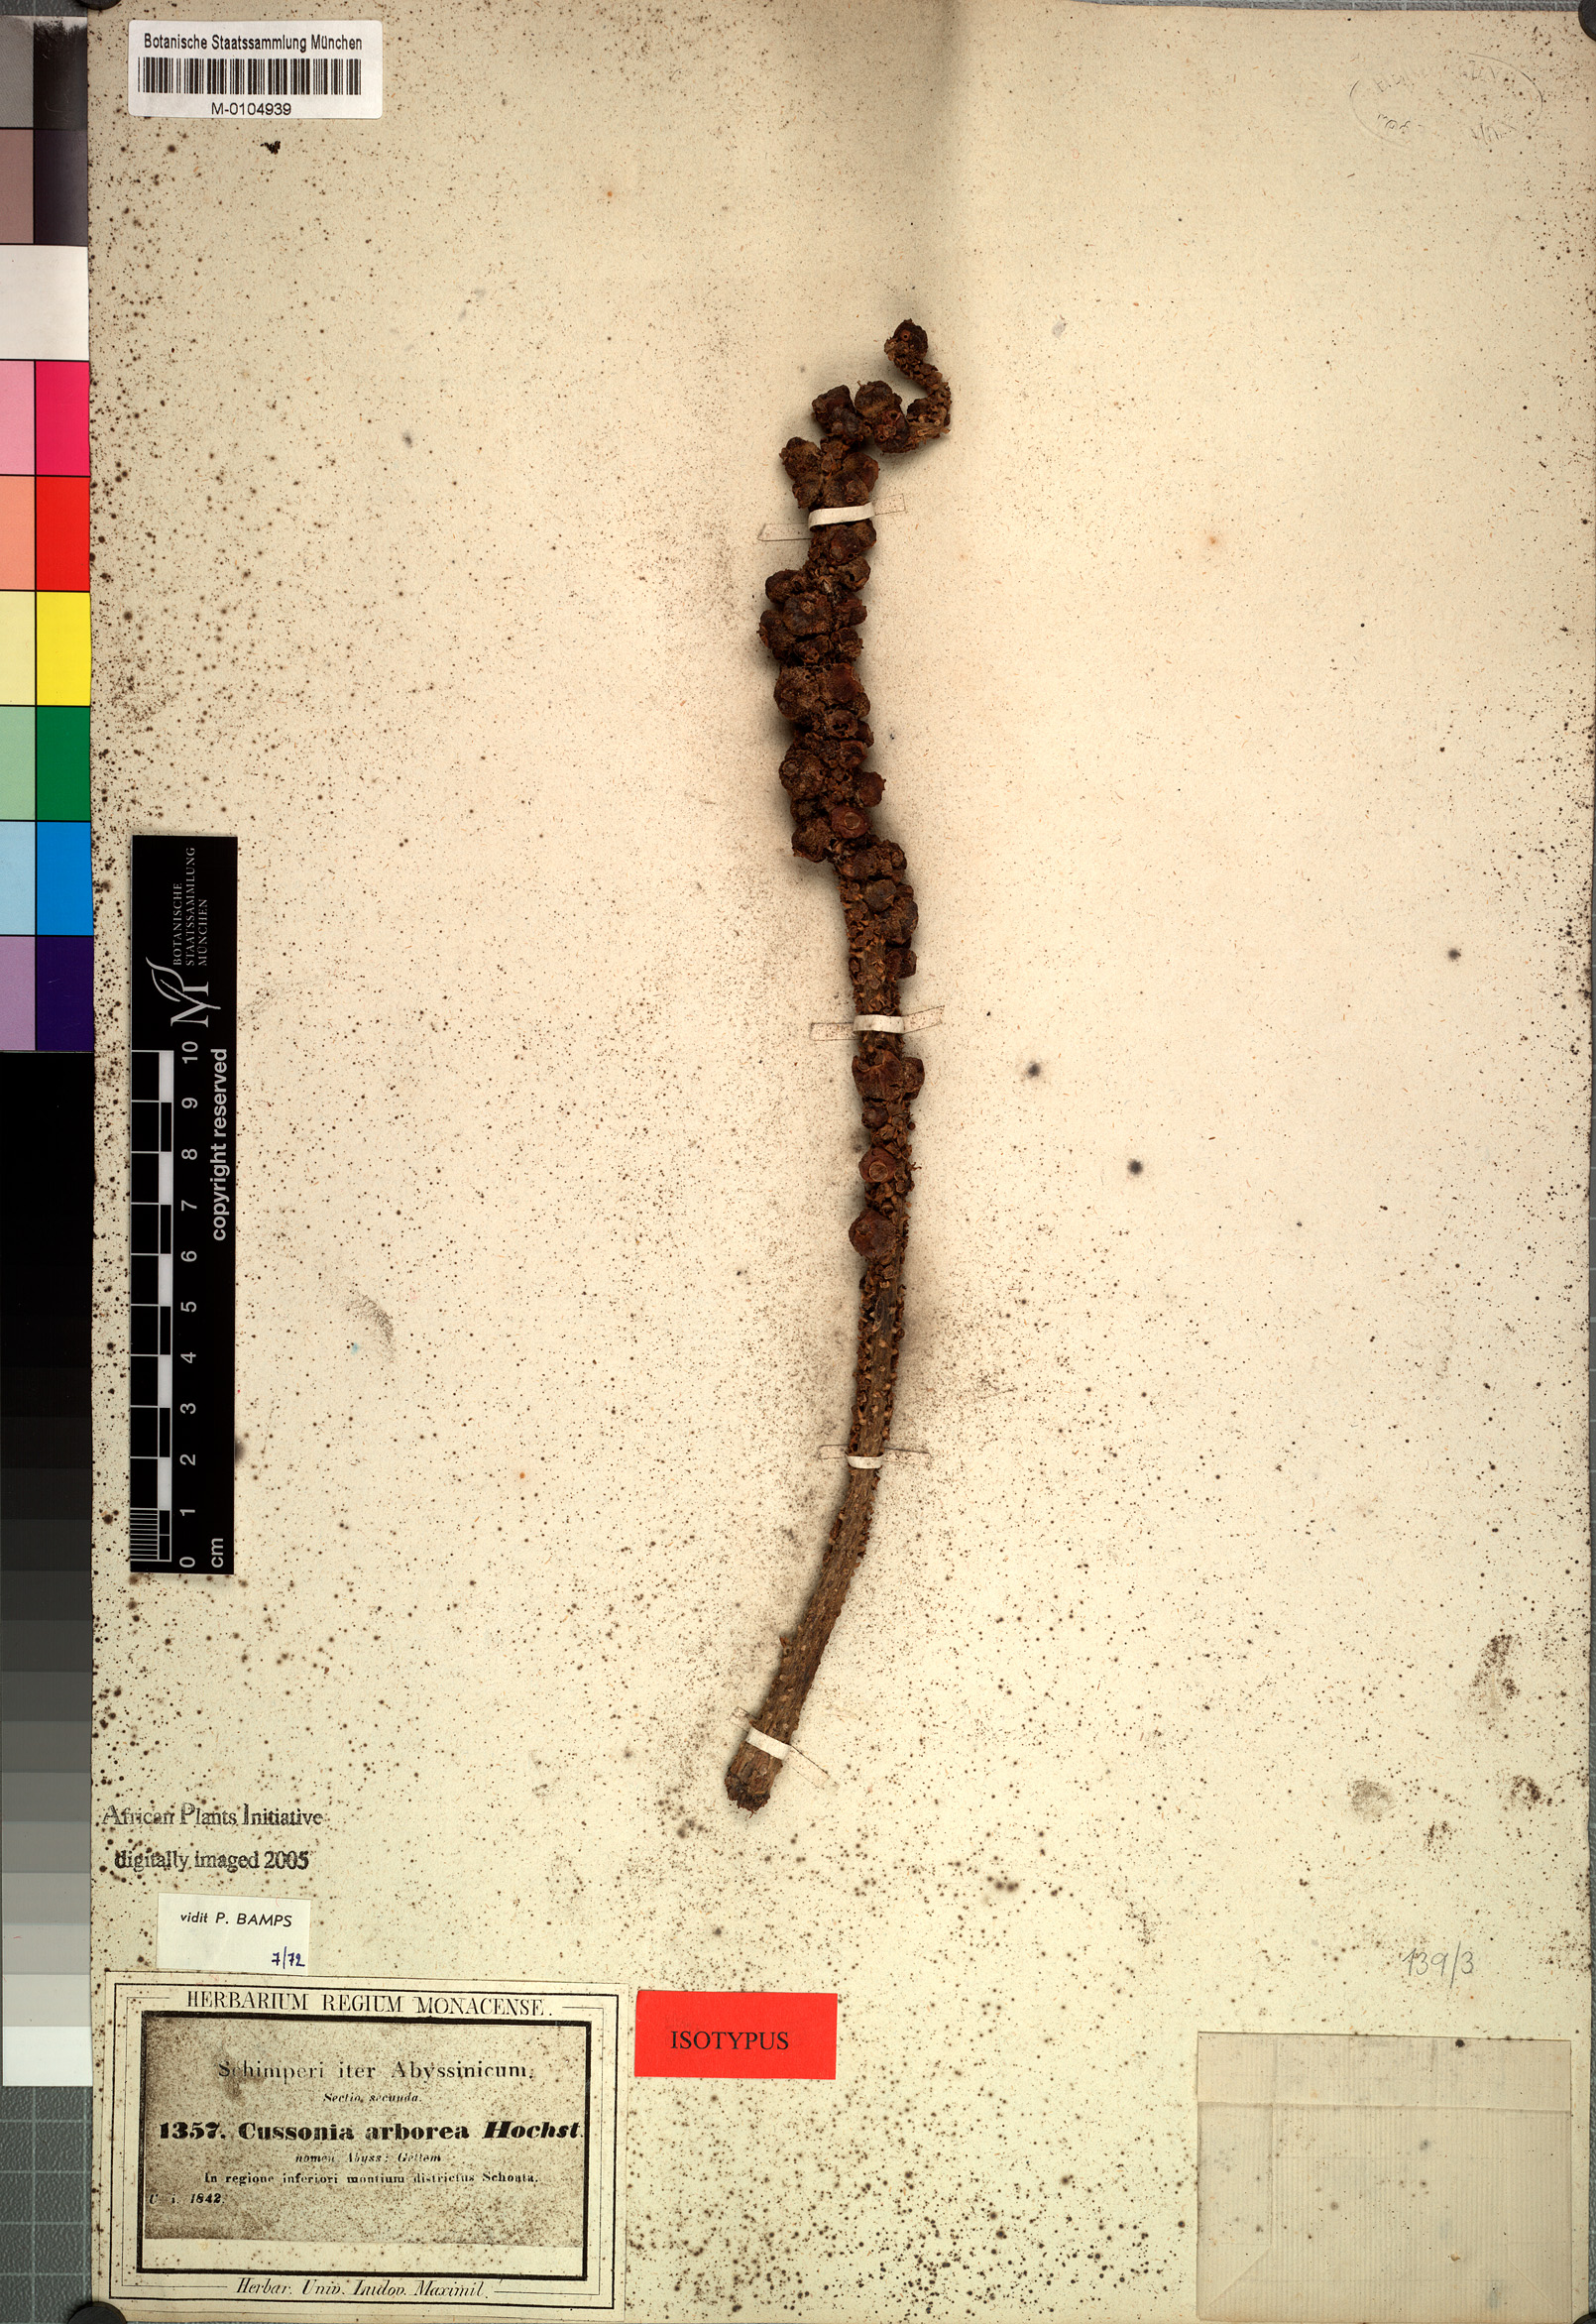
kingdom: Plantae
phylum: Tracheophyta
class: Magnoliopsida
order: Apiales
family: Araliaceae
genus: Cussonia
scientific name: Cussonia arborea
